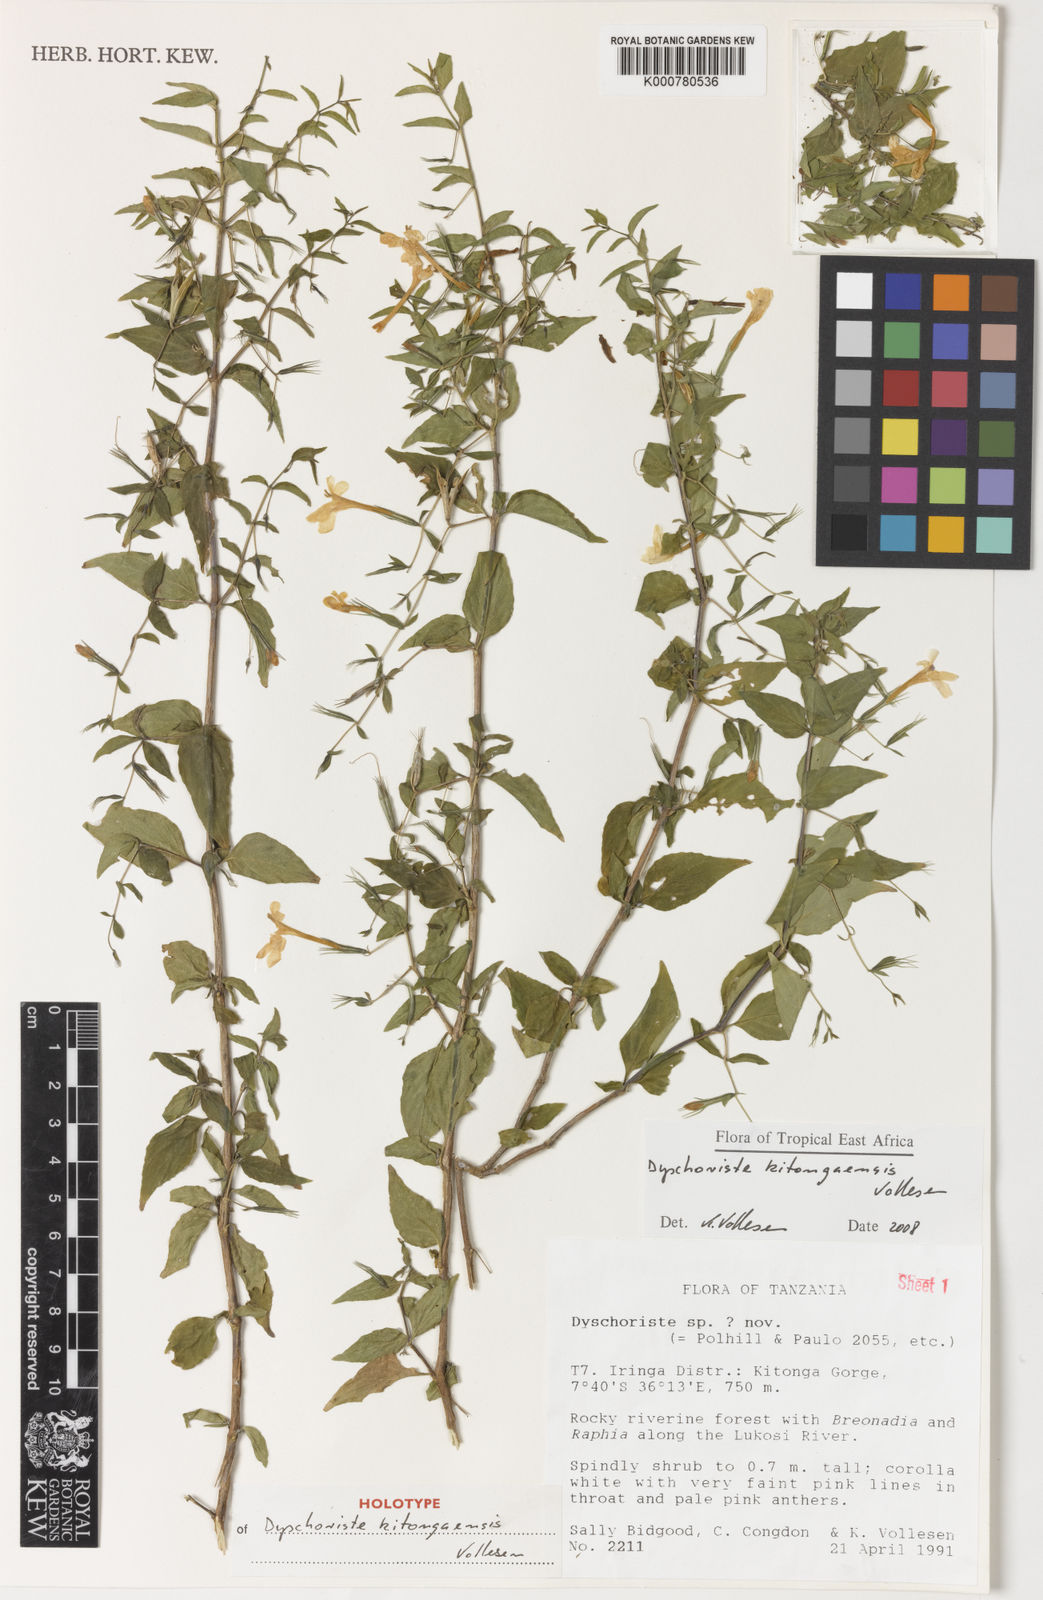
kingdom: Plantae
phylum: Tracheophyta
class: Magnoliopsida
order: Lamiales
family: Acanthaceae
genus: Dyschoriste
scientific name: Dyschoriste kitongaensis
